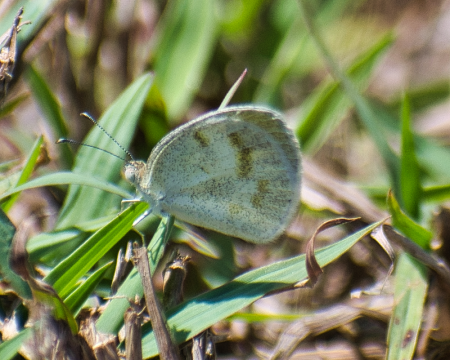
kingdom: Animalia
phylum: Arthropoda
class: Insecta
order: Lepidoptera
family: Pieridae
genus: Eurema
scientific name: Eurema lucina
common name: Smudged Yellow
